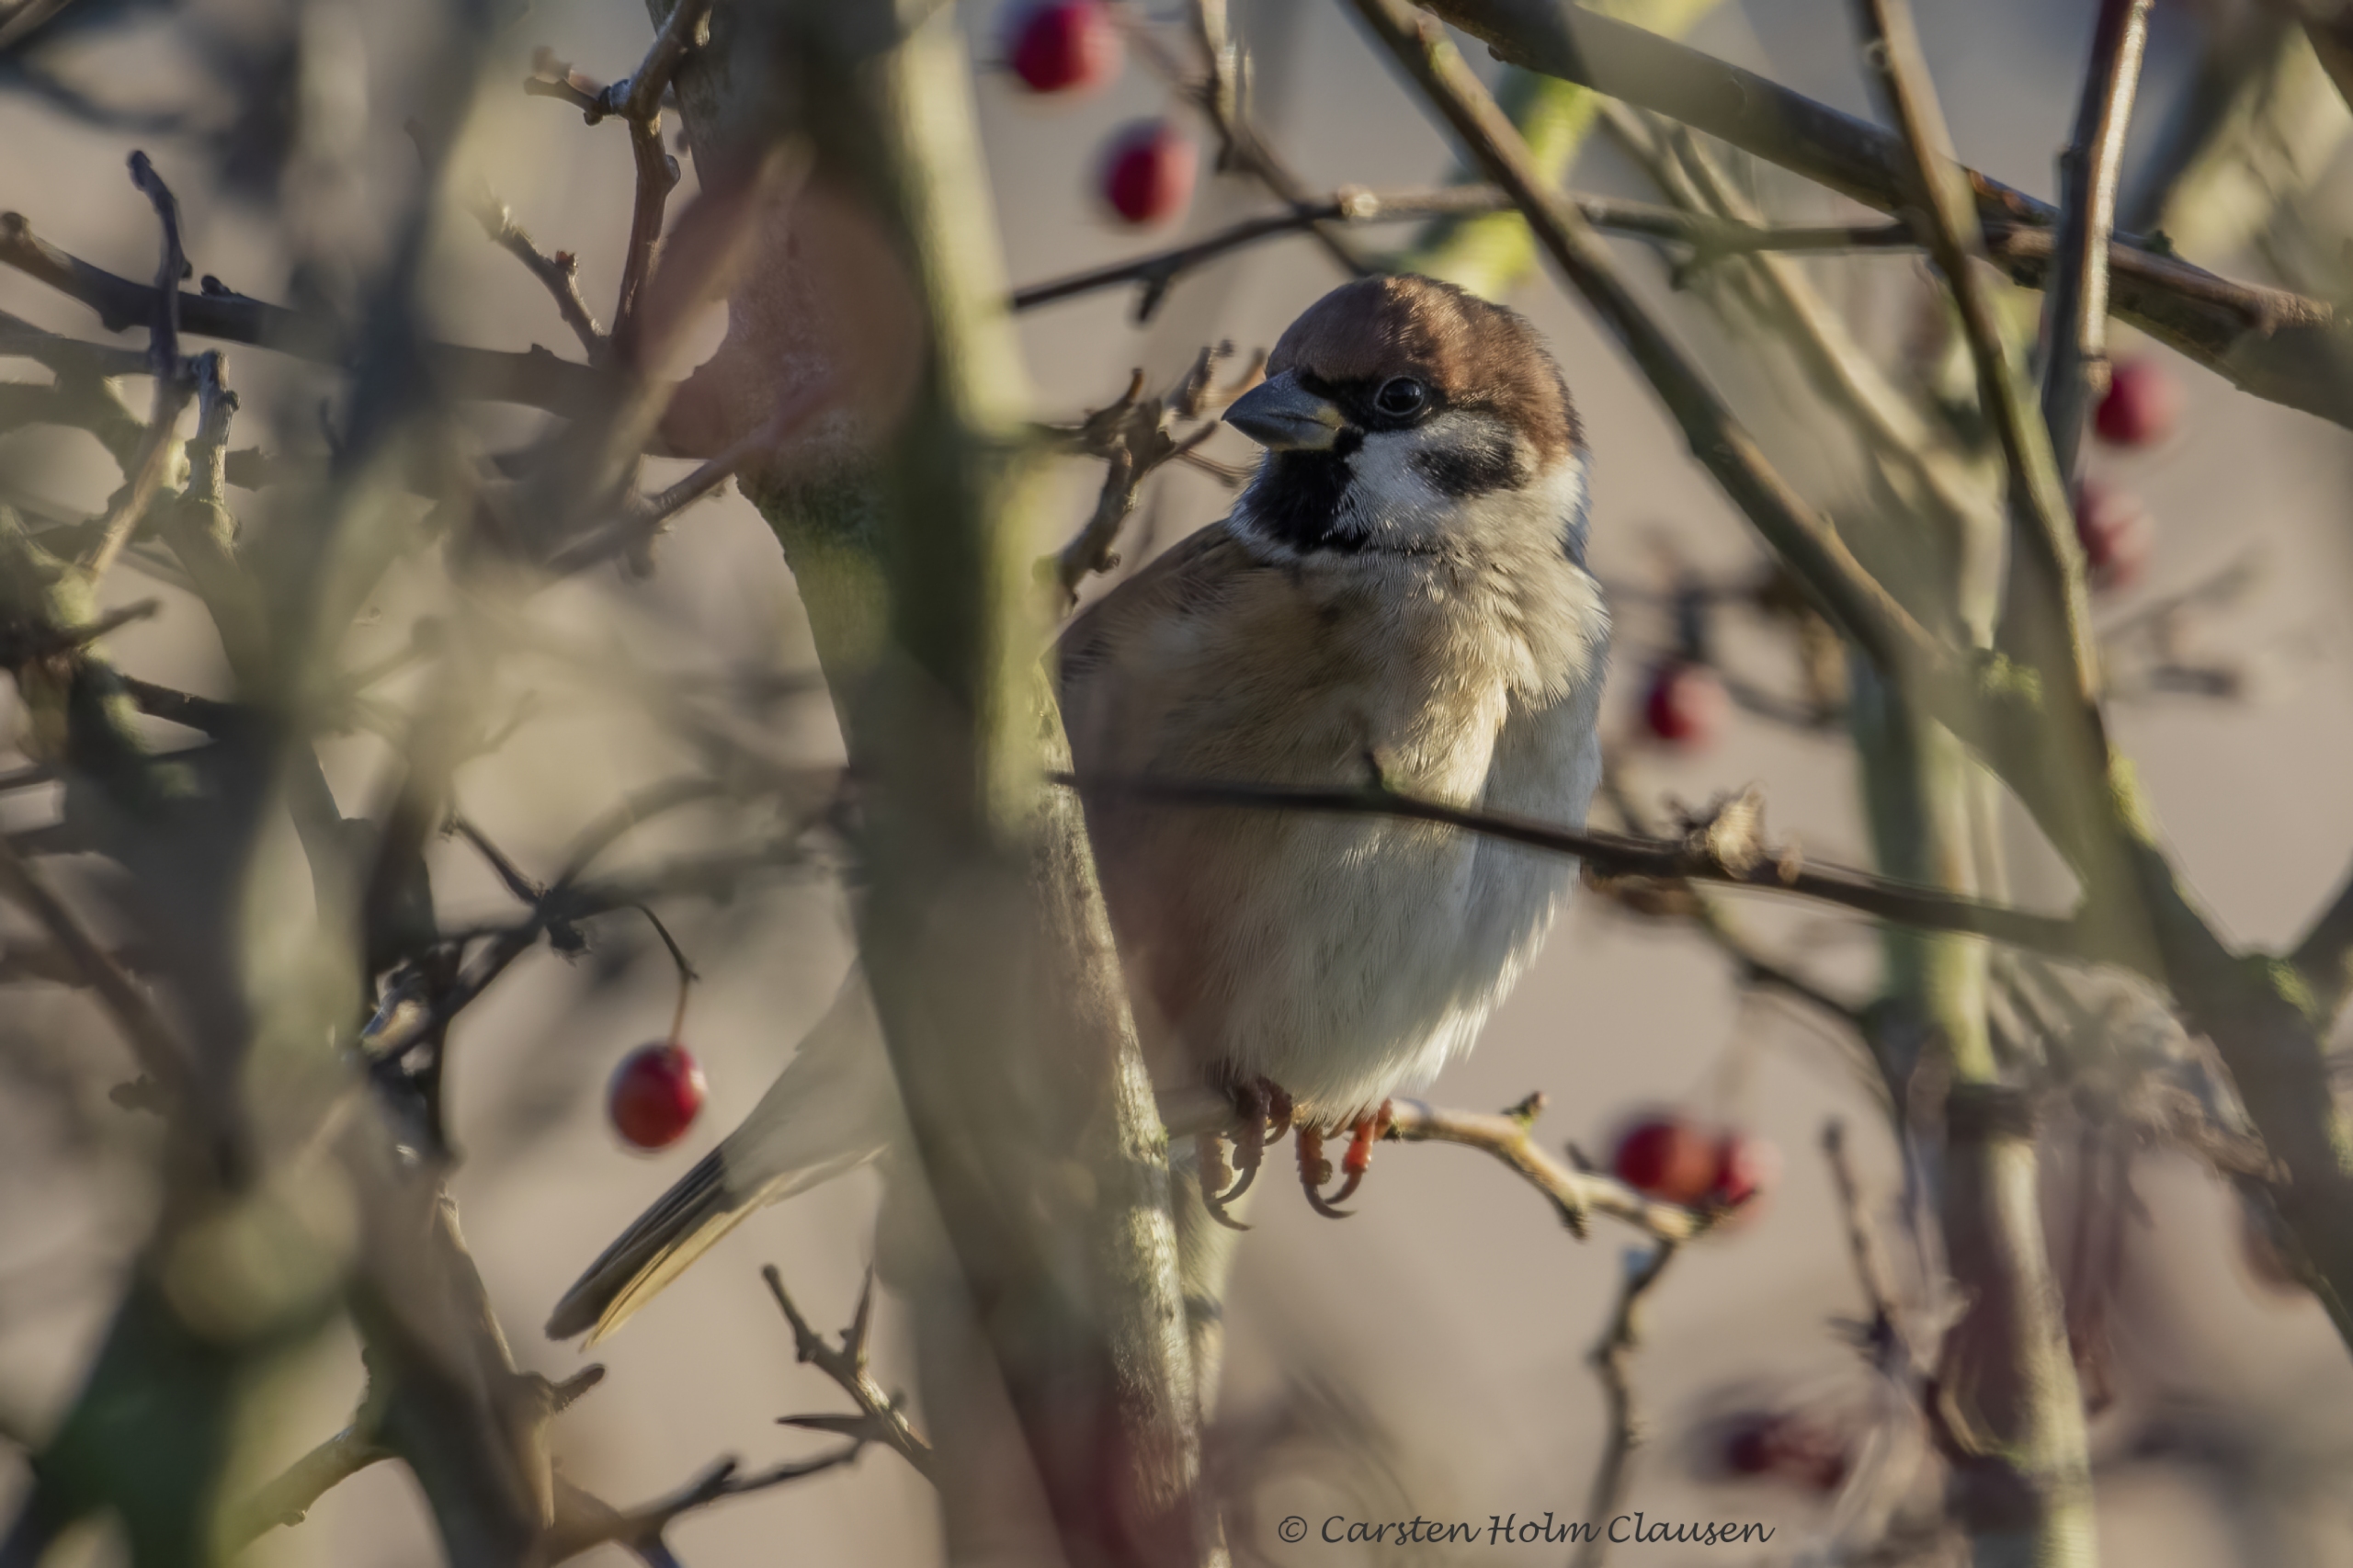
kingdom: Animalia
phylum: Chordata
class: Aves
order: Passeriformes
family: Passeridae
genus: Passer
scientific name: Passer montanus
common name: Skovspurv
